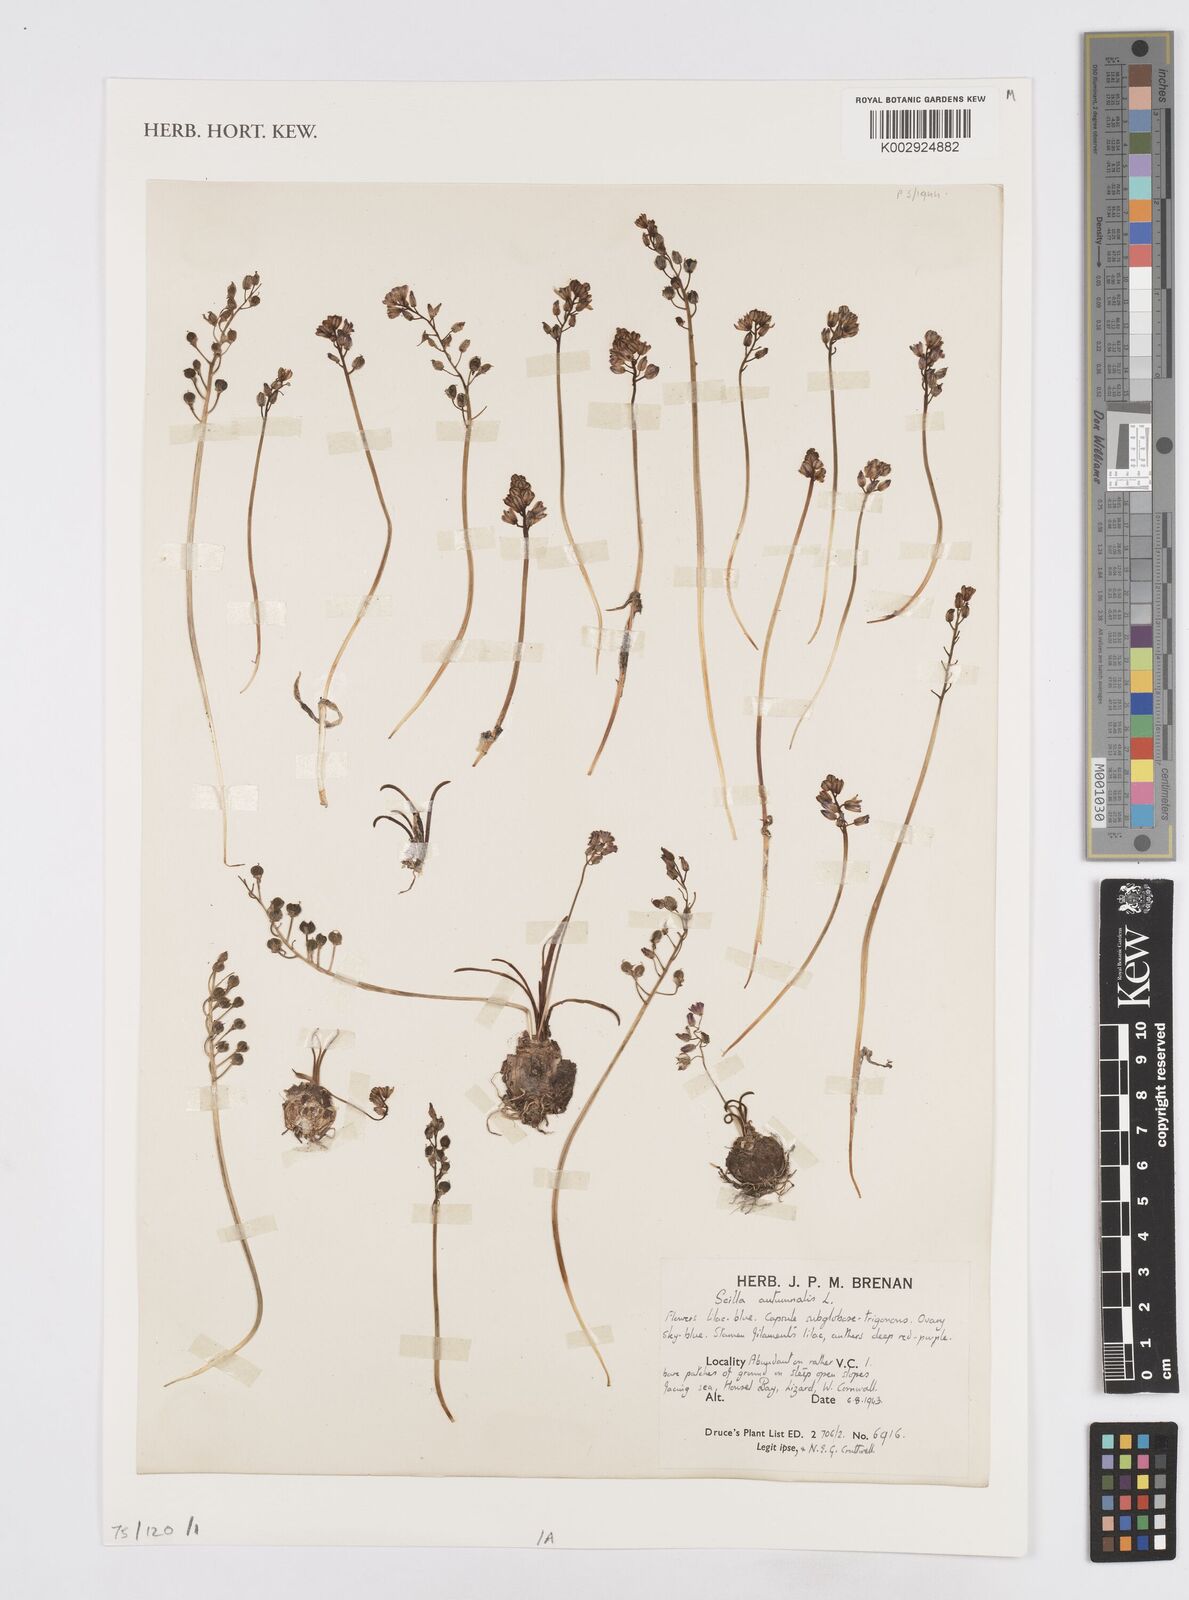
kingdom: Plantae
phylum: Tracheophyta
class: Liliopsida
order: Asparagales
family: Asparagaceae
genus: Prospero
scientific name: Prospero autumnale
